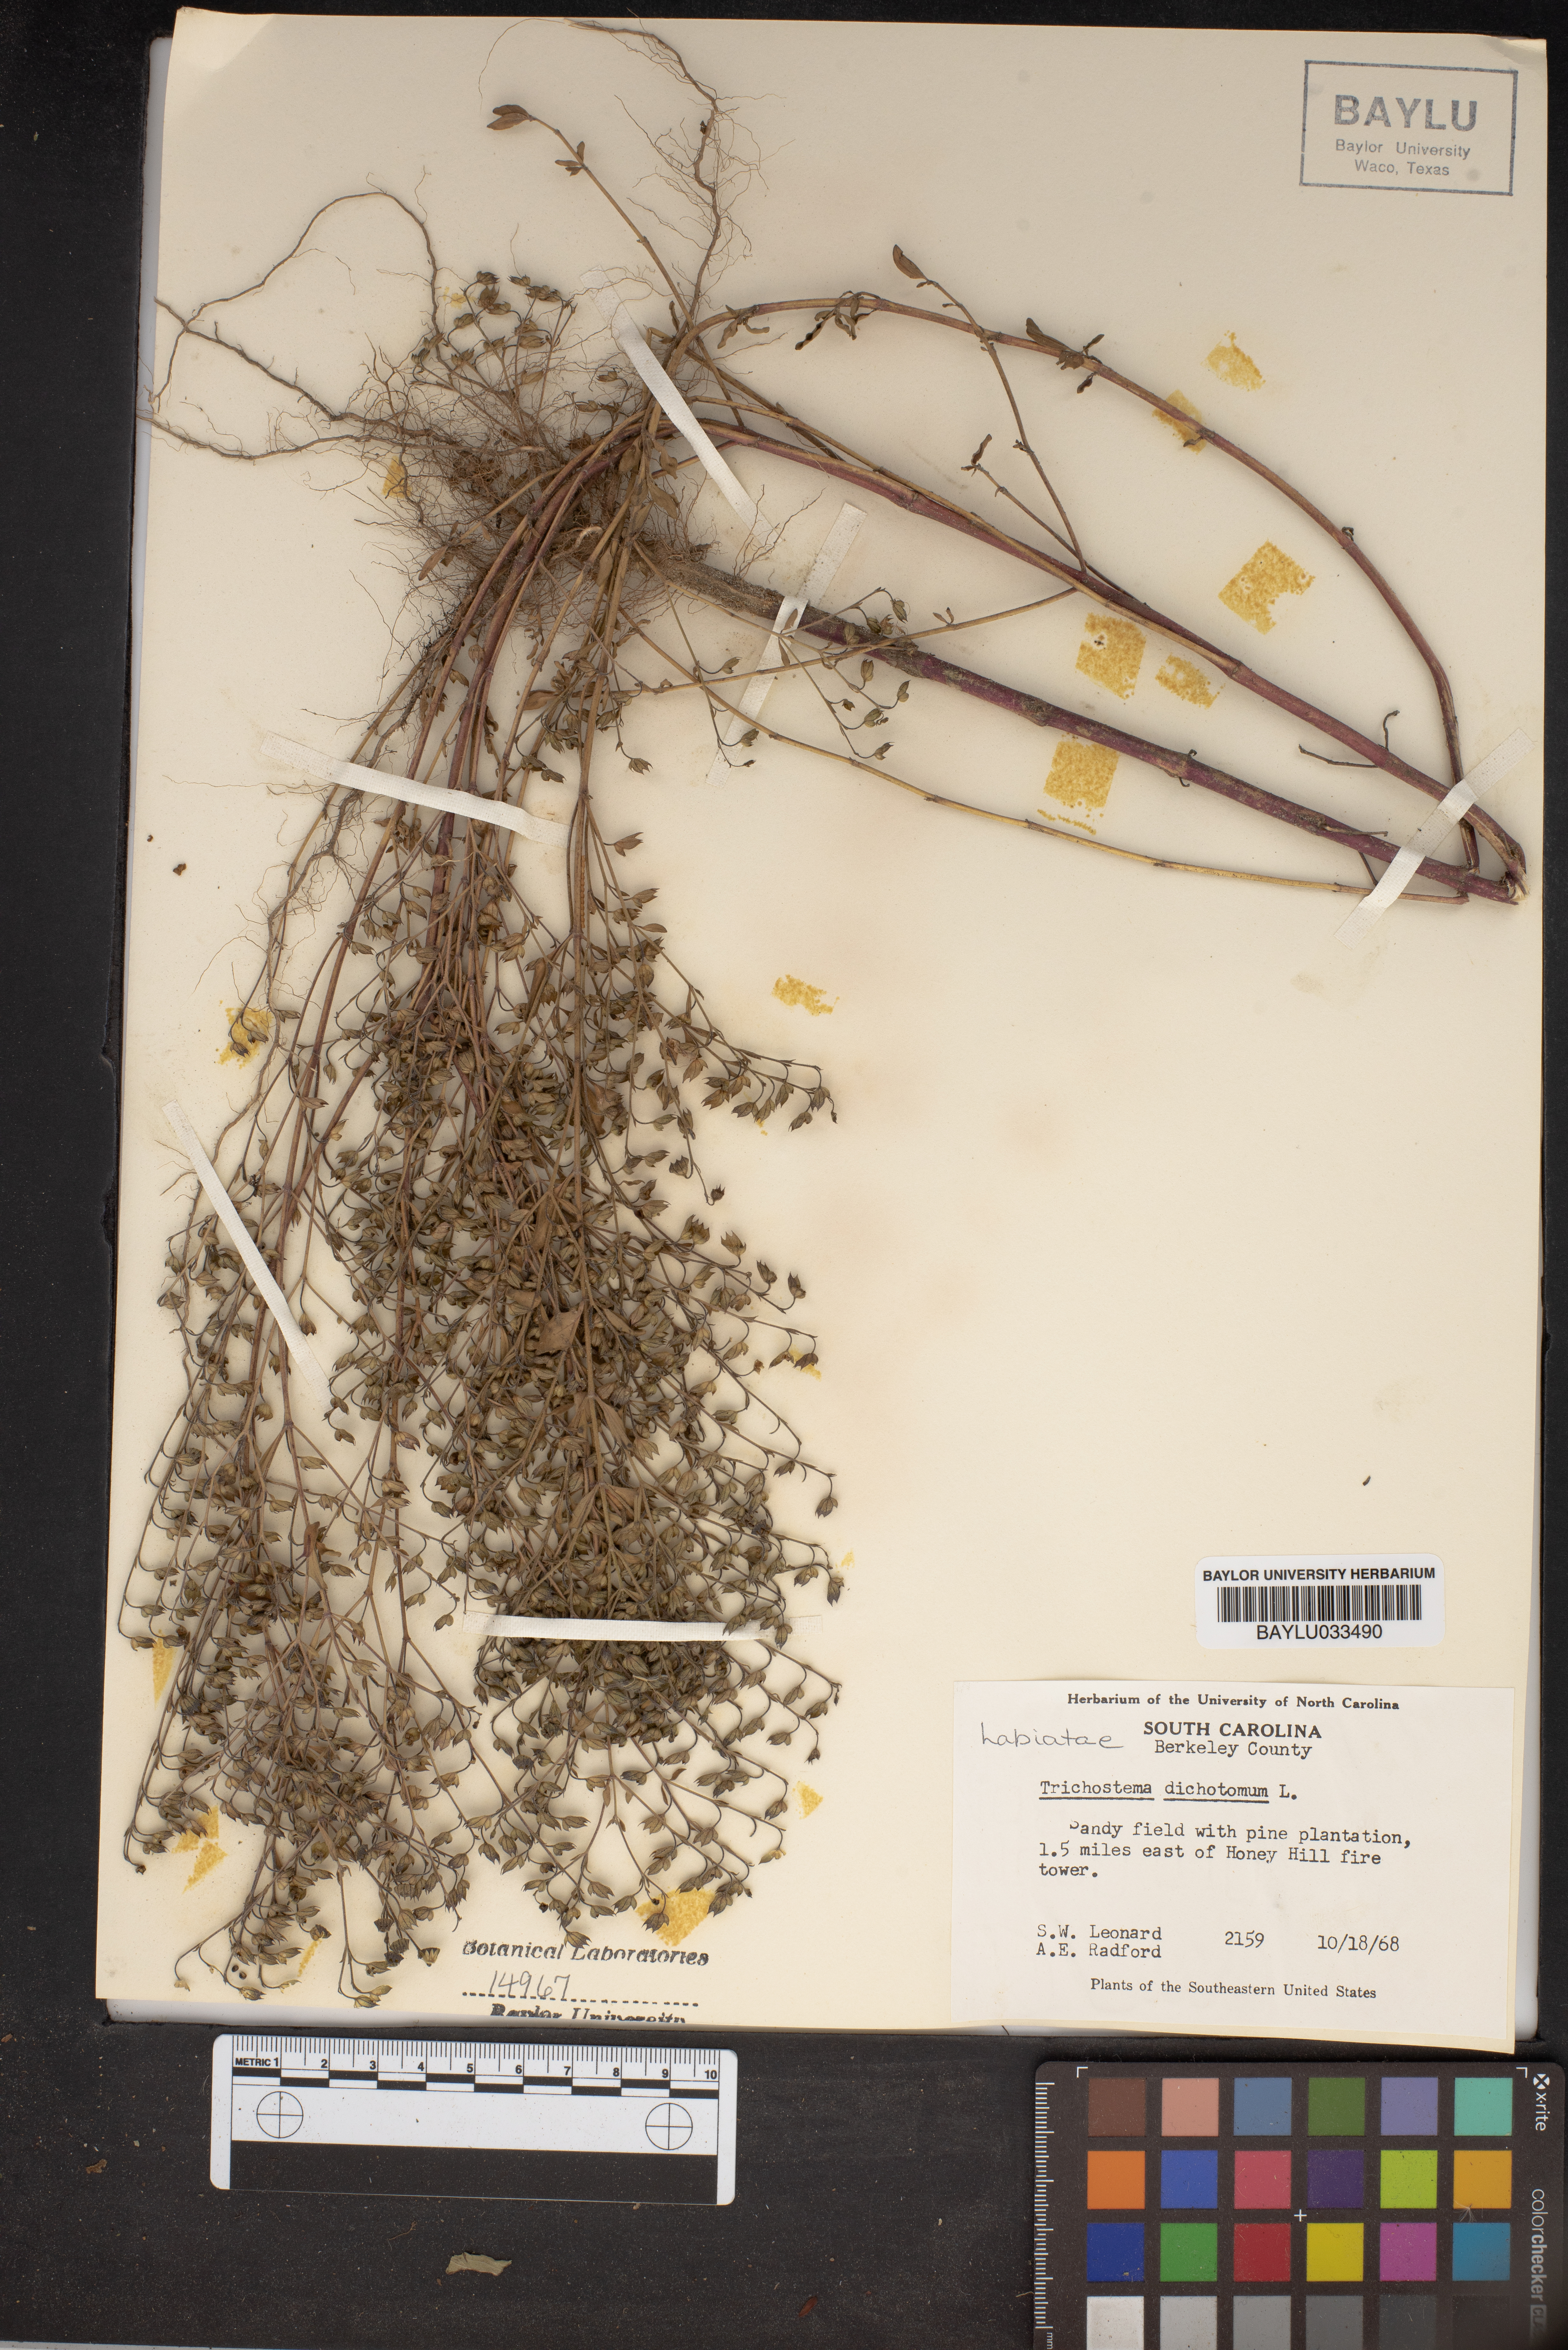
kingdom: Plantae
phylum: Tracheophyta
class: Magnoliopsida
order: Lamiales
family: Lamiaceae
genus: Trichostema
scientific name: Trichostema dichotomum
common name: Bastard pennyroyal
